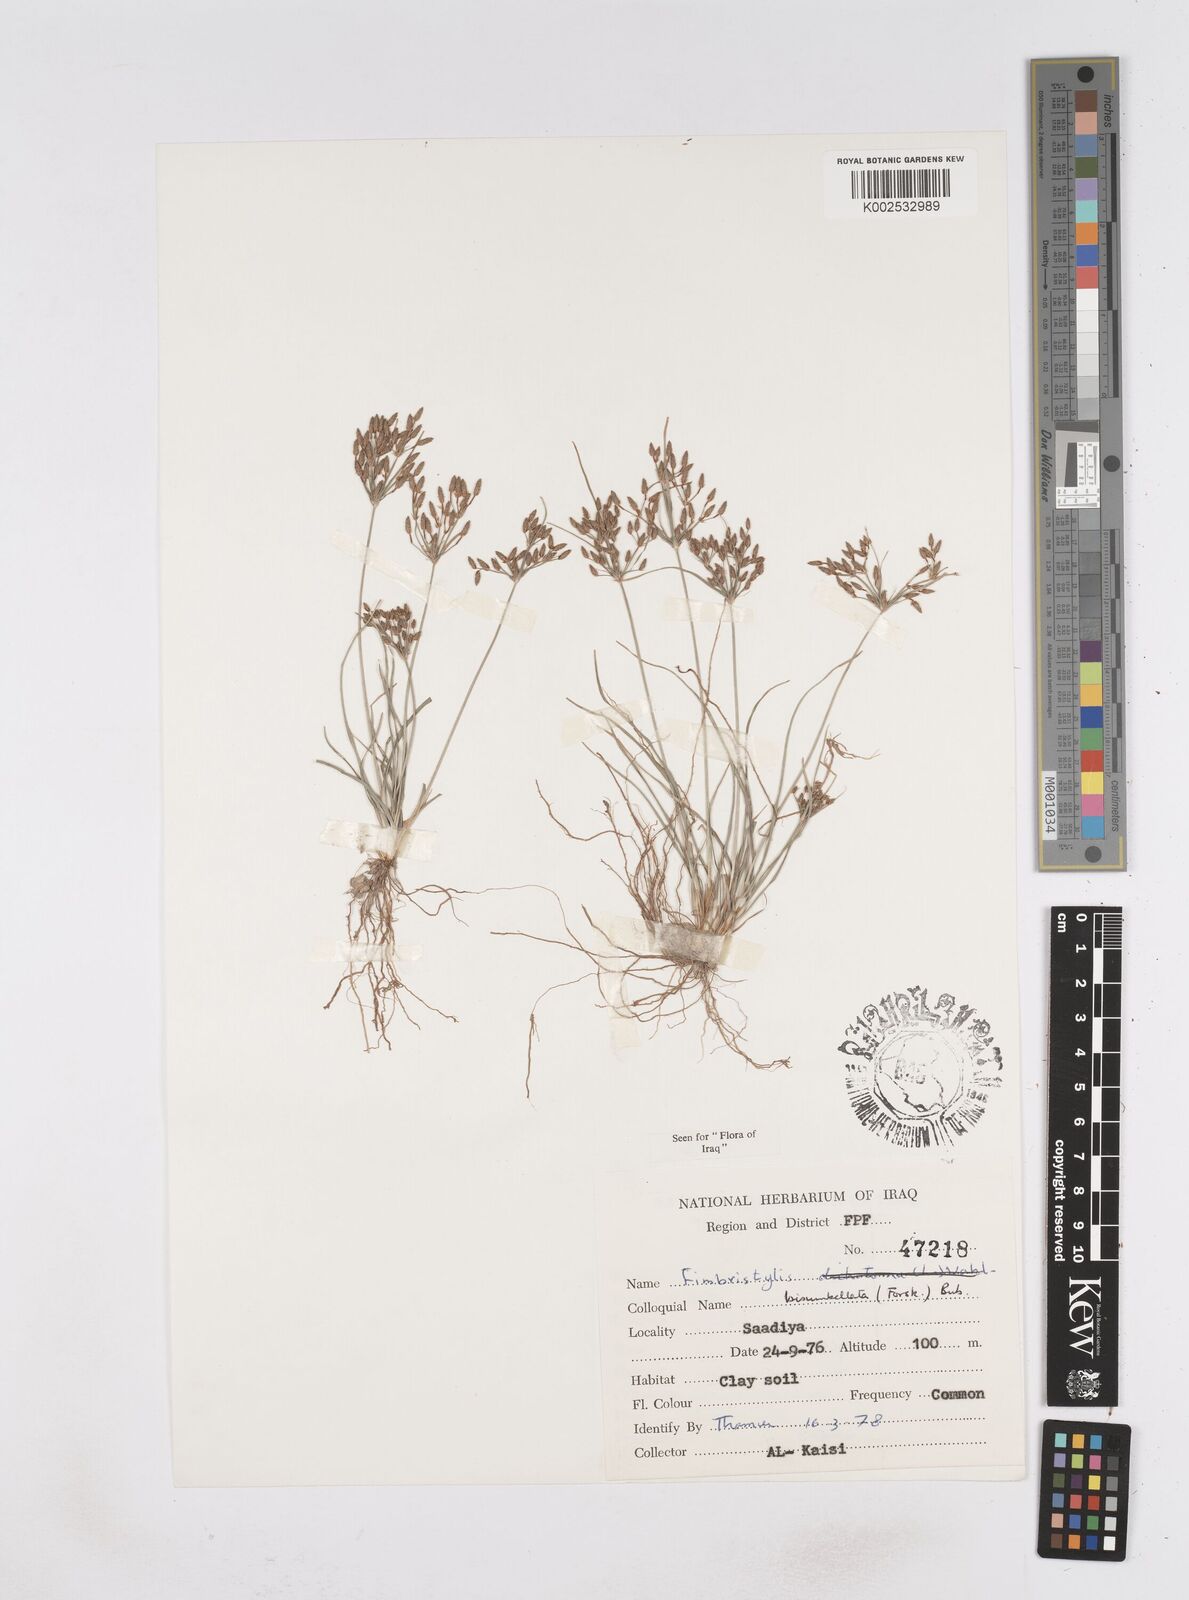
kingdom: Plantae
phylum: Tracheophyta
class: Liliopsida
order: Poales
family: Cyperaceae
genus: Fimbristylis
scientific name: Fimbristylis bisumbellata
